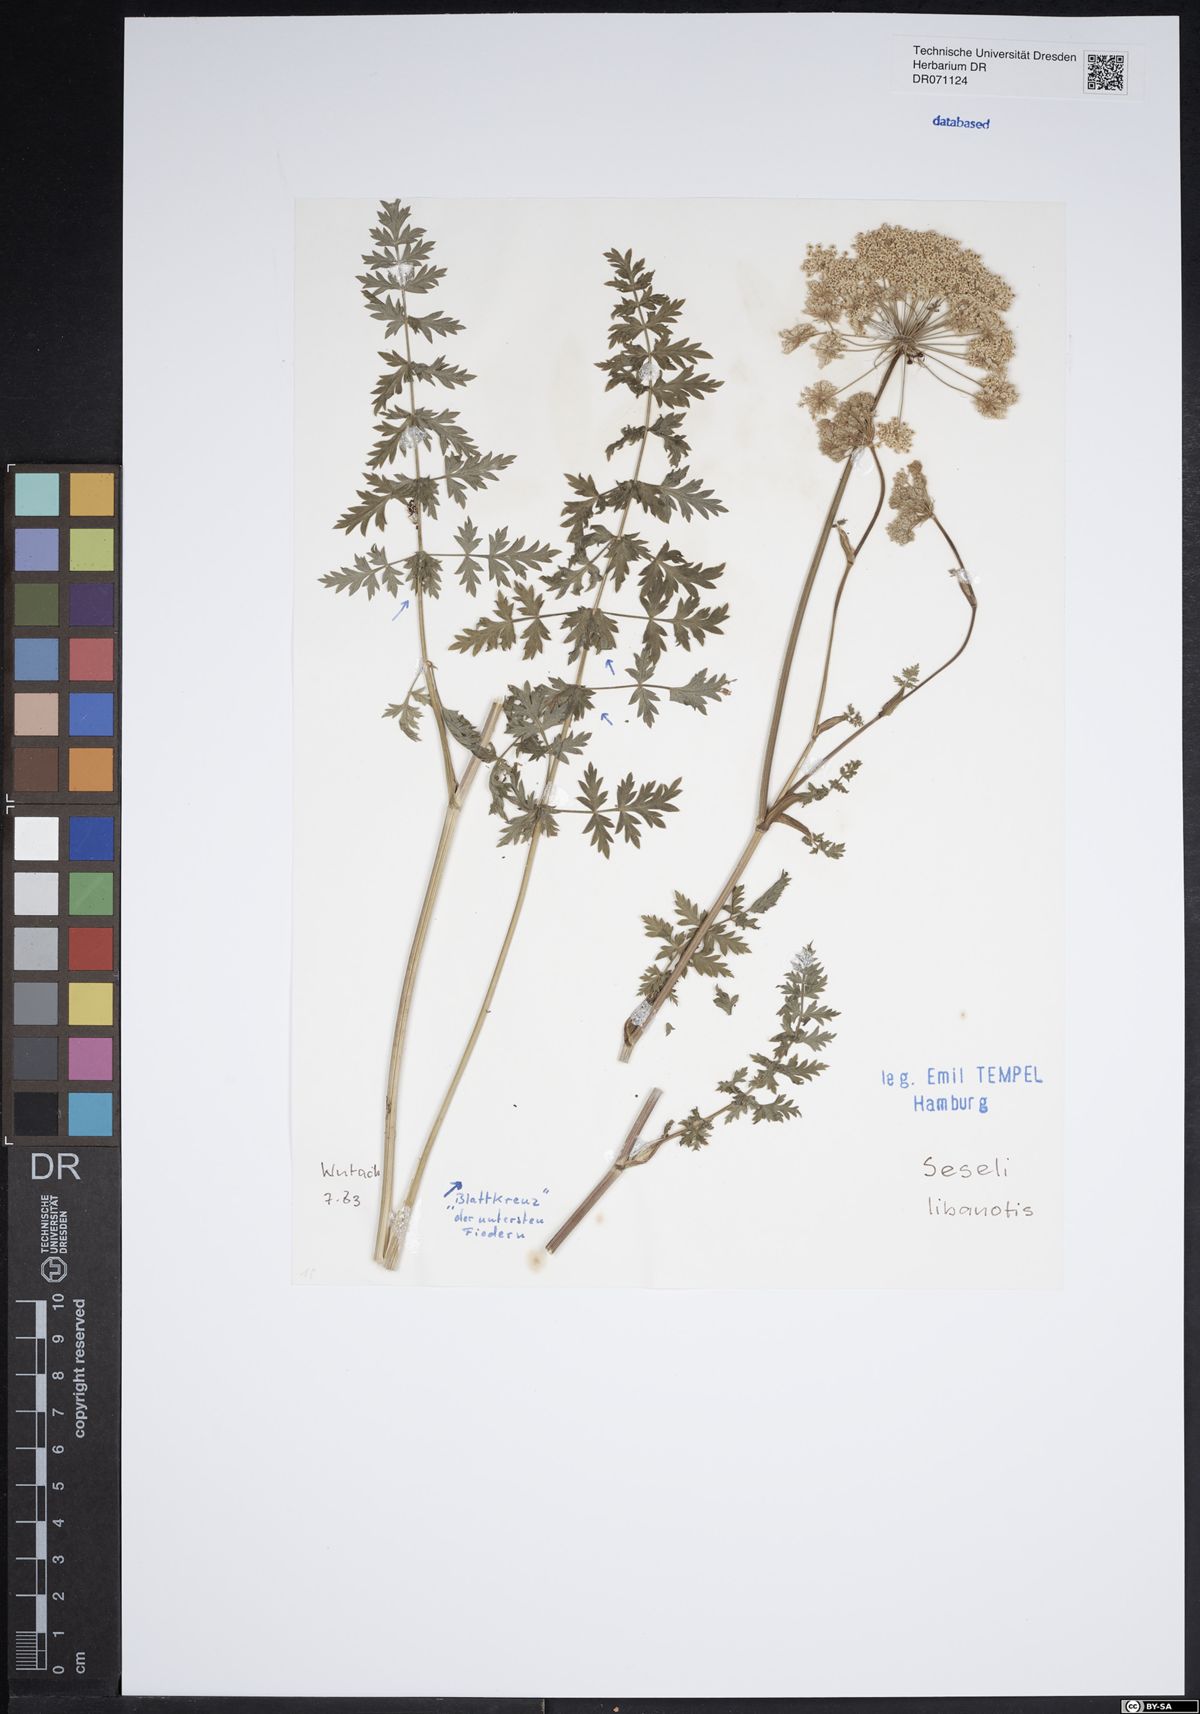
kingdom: Plantae
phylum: Tracheophyta
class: Magnoliopsida
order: Apiales
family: Apiaceae
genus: Seseli
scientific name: Seseli libanotis
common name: Mooncarrot
